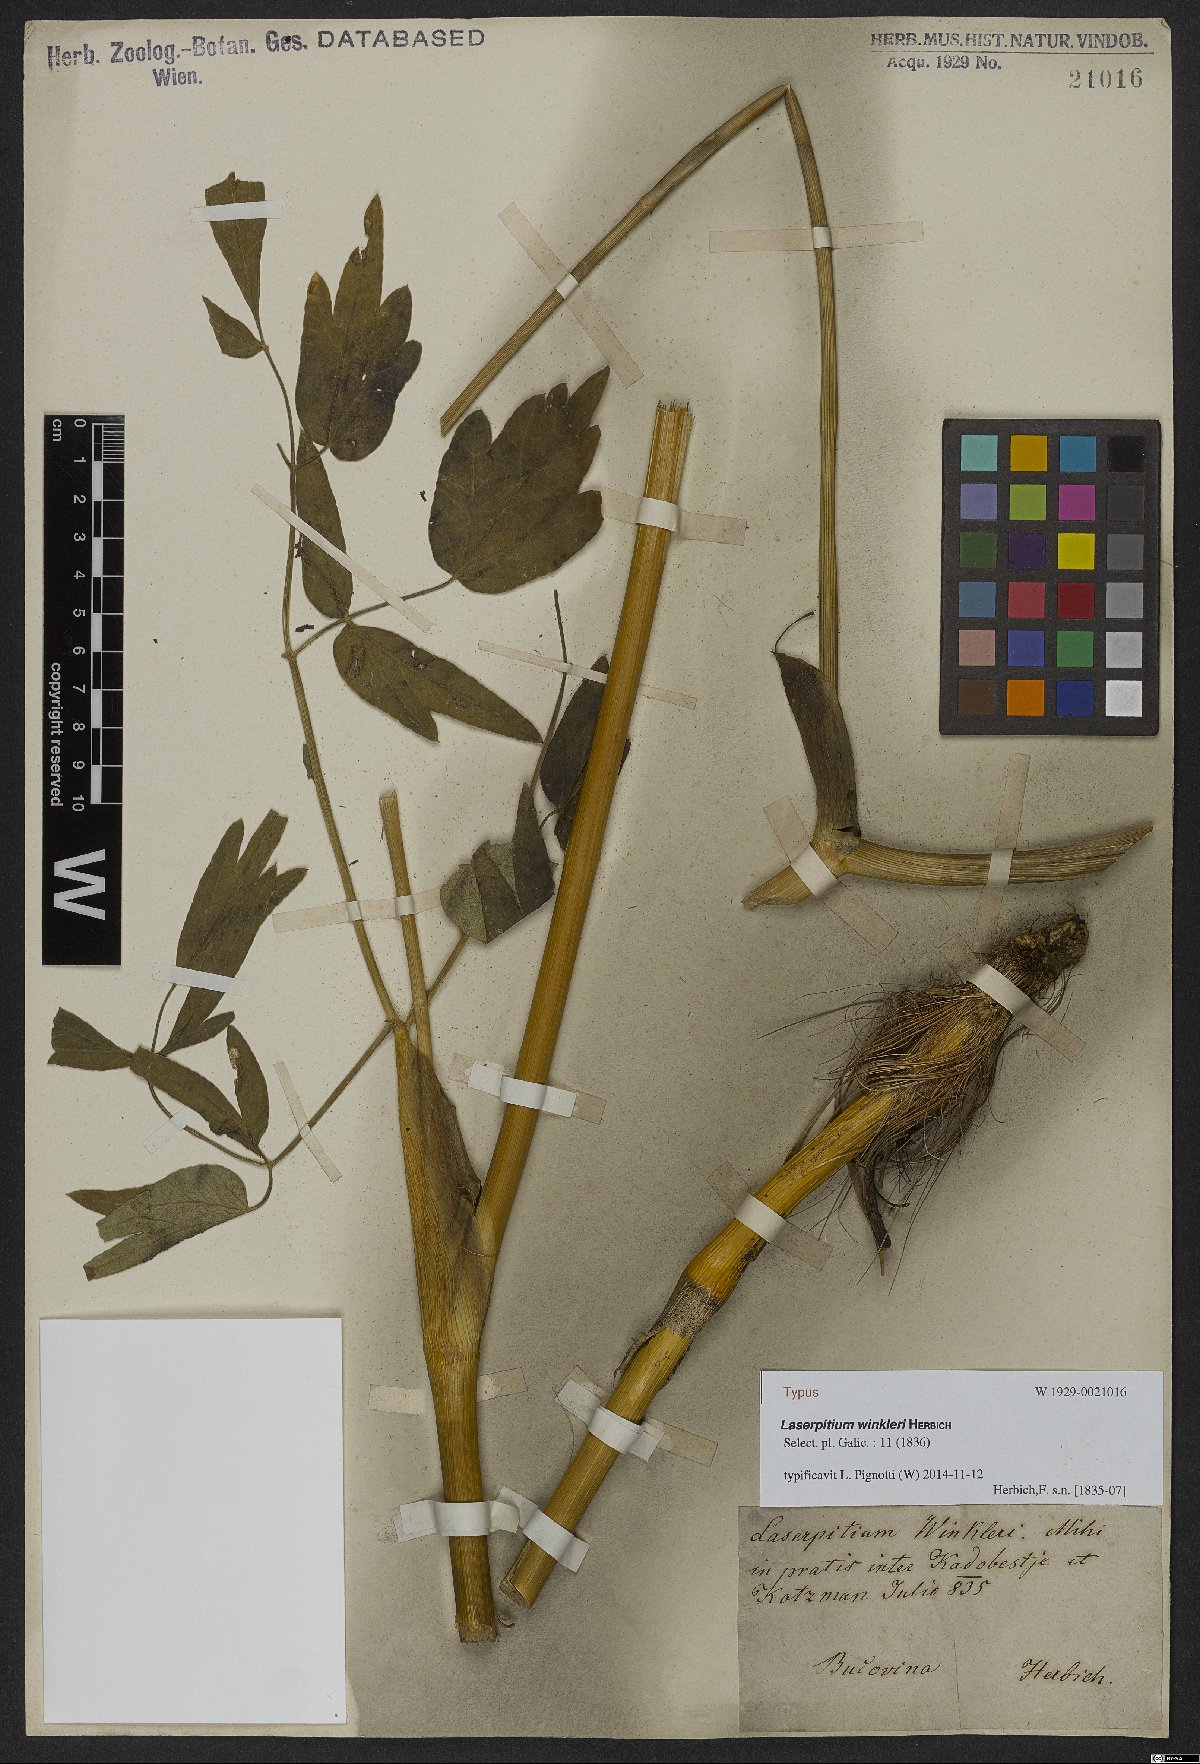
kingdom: Plantae
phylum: Tracheophyta
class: Magnoliopsida
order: Apiales
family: Apiaceae
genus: Laserpitium
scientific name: Laserpitium winkleri
